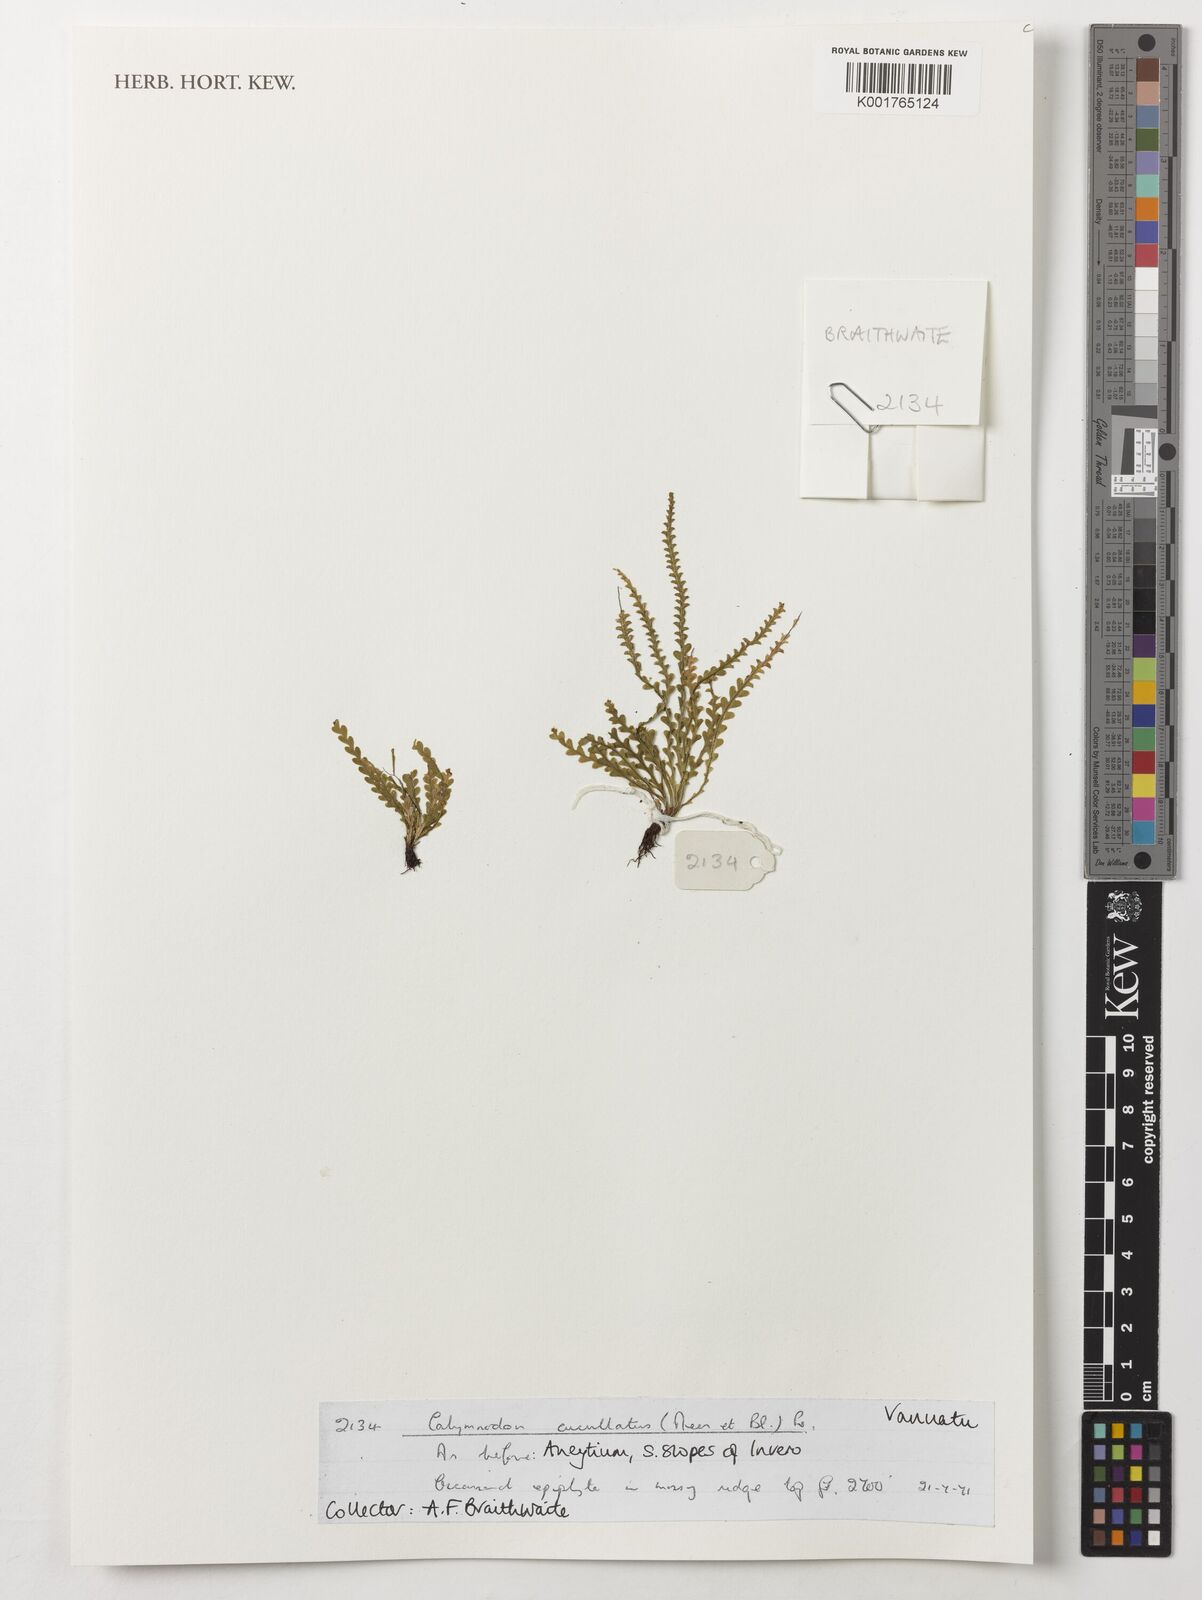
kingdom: Plantae
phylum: Tracheophyta
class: Polypodiopsida
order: Polypodiales
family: Polypodiaceae
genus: Calymmodon
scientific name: Calymmodon cucullatus
